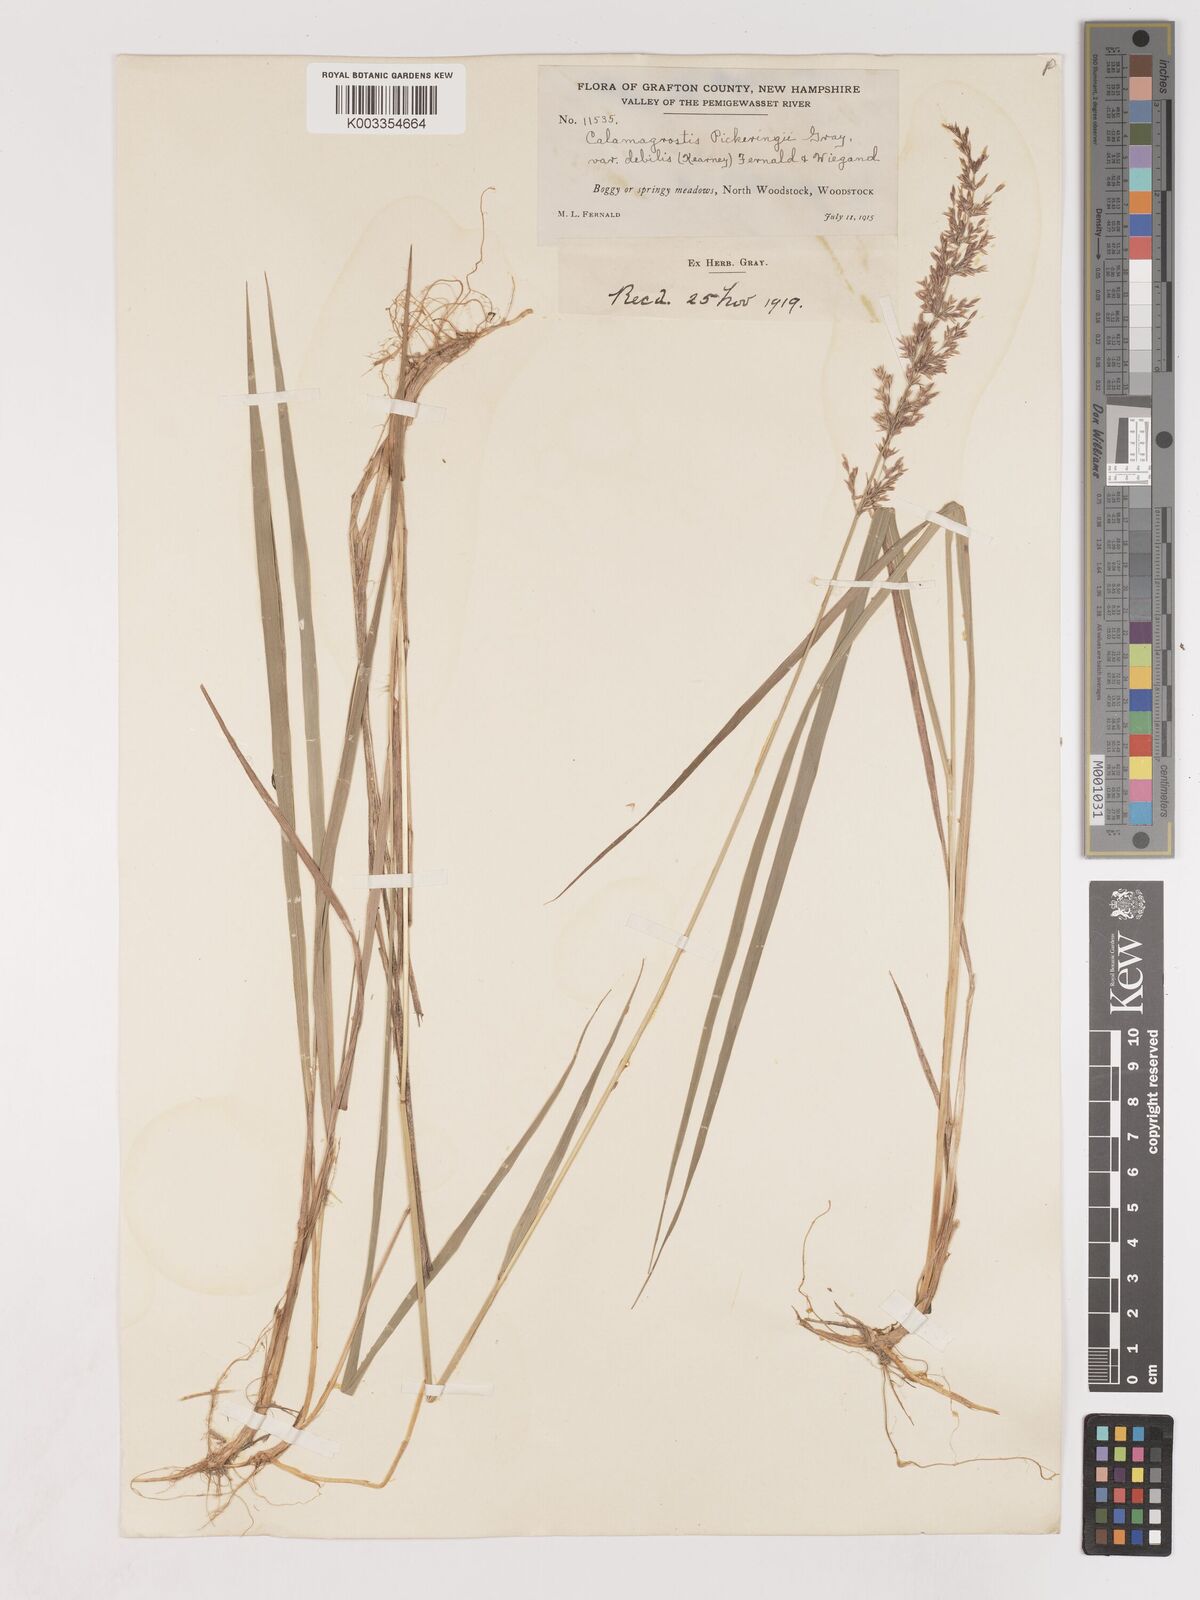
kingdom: Plantae
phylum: Tracheophyta
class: Liliopsida
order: Poales
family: Poaceae
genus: Calamagrostis
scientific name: Calamagrostis pickeringii
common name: Pickering's reed bentgrass
